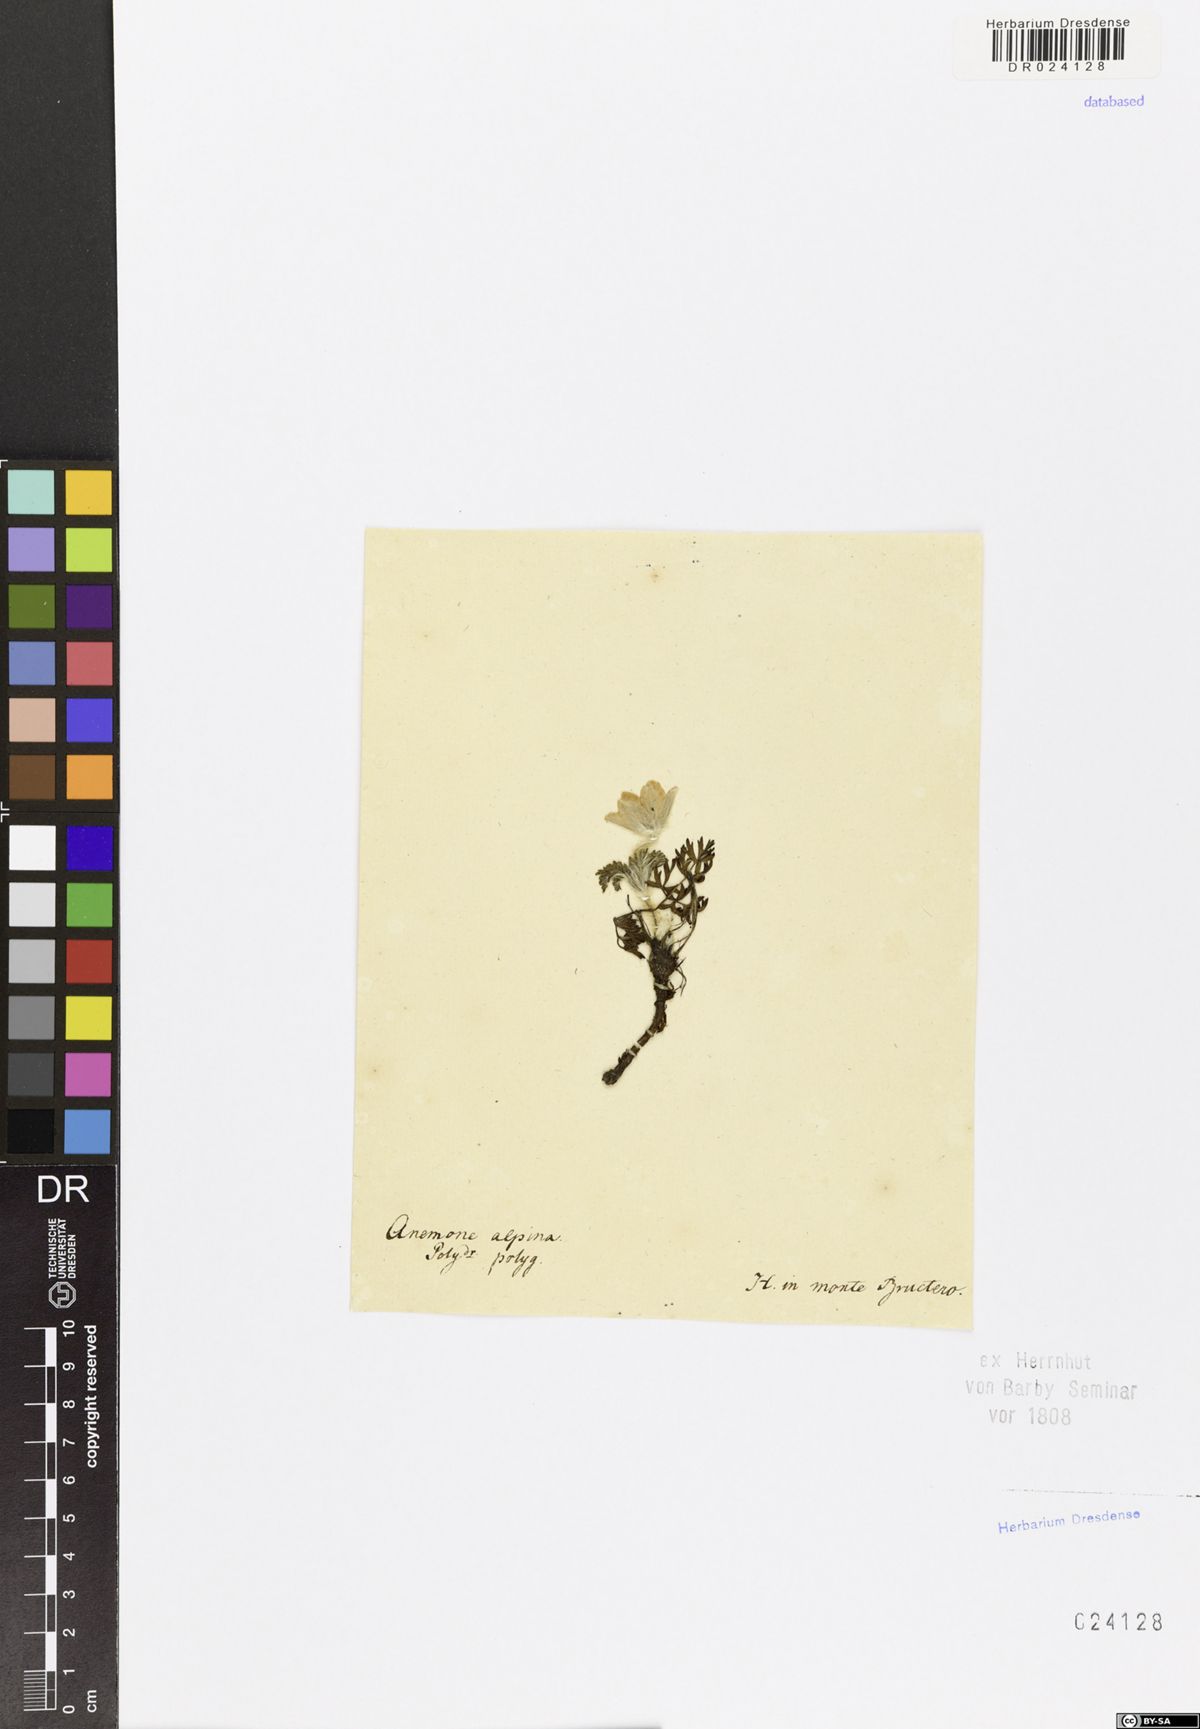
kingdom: Plantae
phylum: Tracheophyta
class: Magnoliopsida
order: Ranunculales
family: Ranunculaceae
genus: Pulsatilla
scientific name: Pulsatilla alpina
